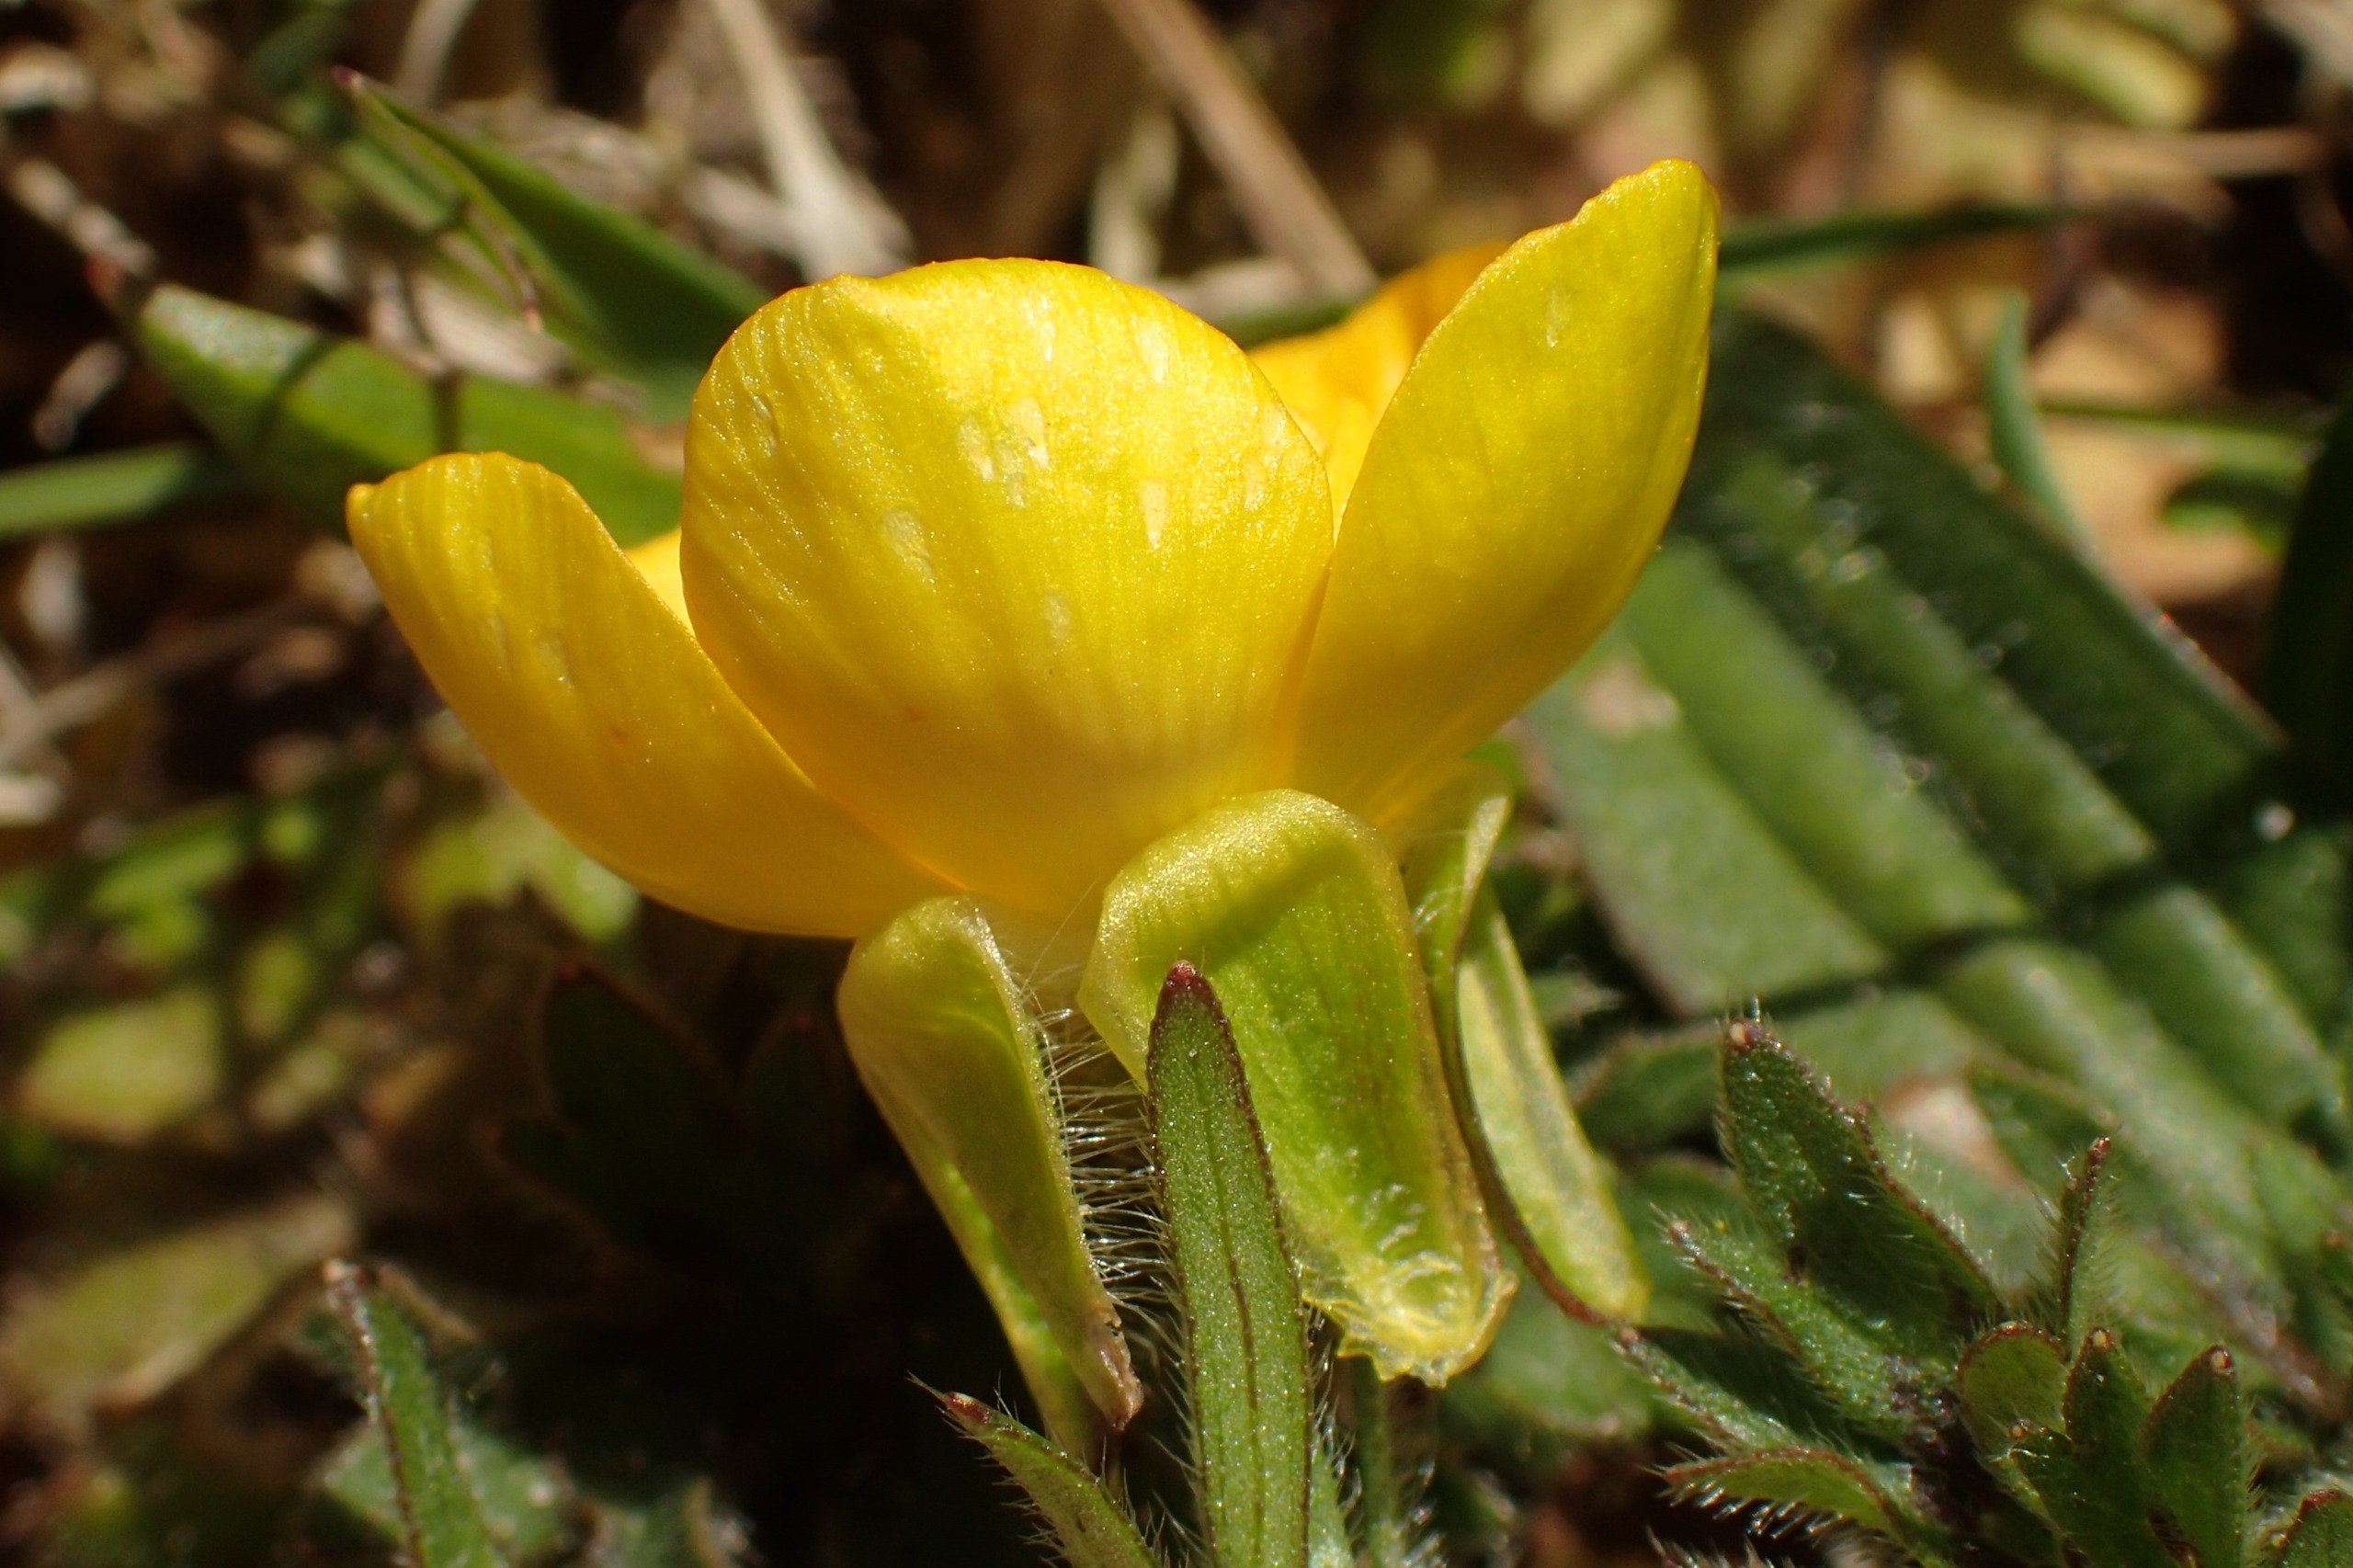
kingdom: Plantae
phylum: Tracheophyta
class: Magnoliopsida
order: Ranunculales
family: Ranunculaceae
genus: Ranunculus
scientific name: Ranunculus bulbosus
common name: Knold-ranunkel
